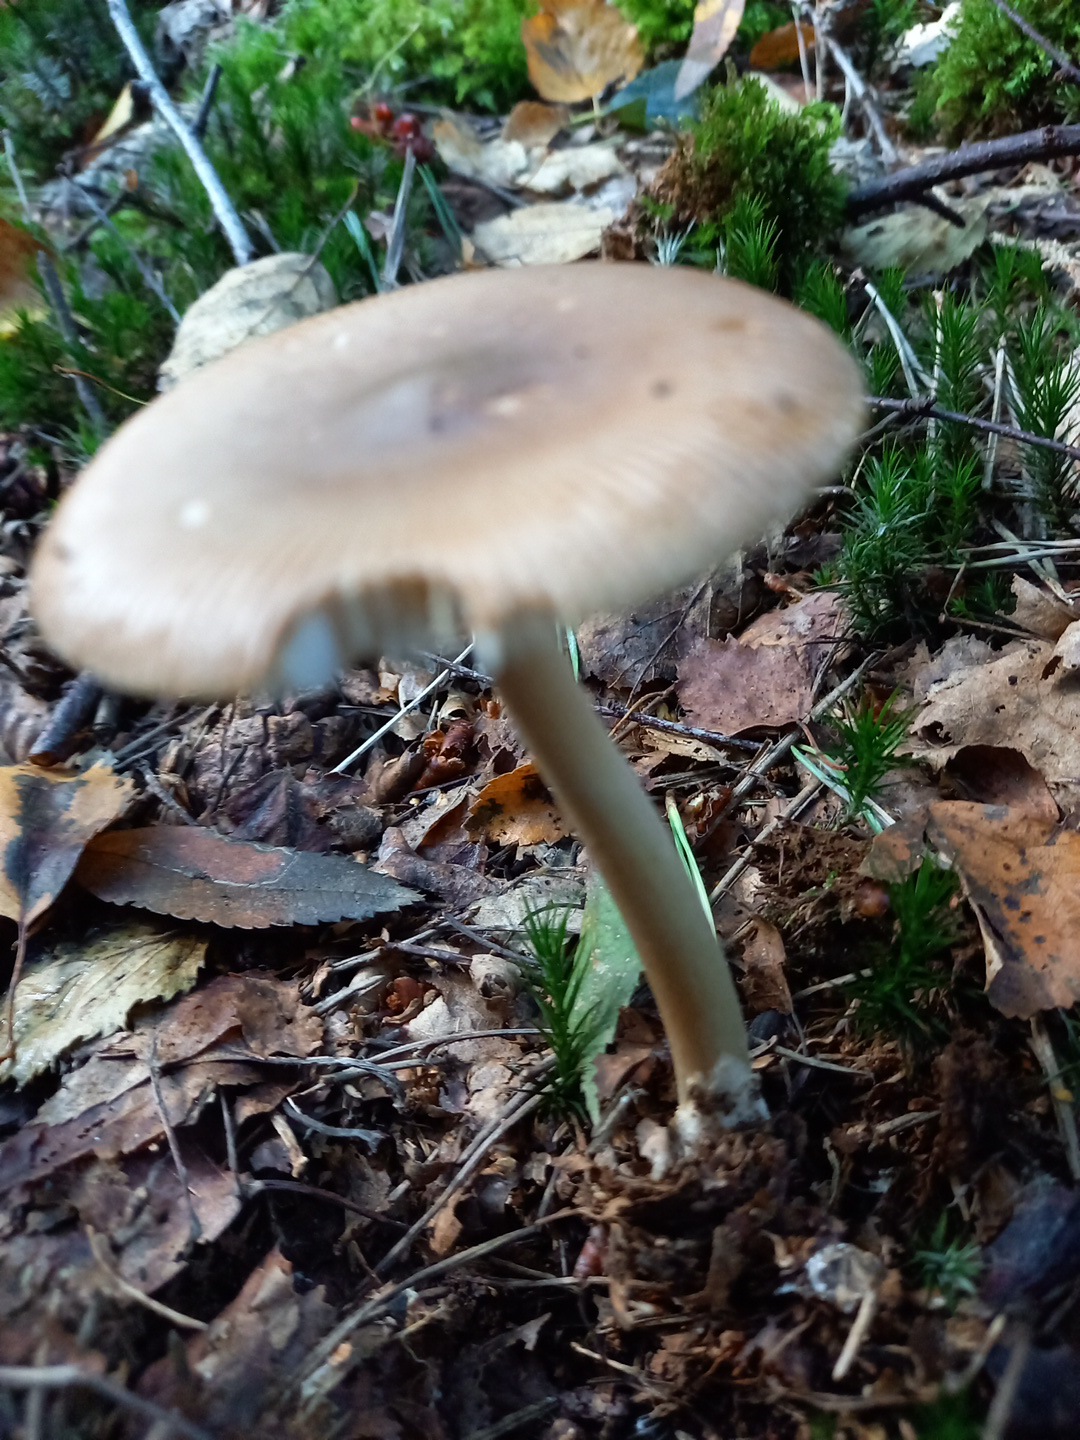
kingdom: Fungi
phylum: Basidiomycota
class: Agaricomycetes
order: Agaricales
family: Amanitaceae
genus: Amanita
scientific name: Amanita fulva
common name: brun kam-fluesvamp
